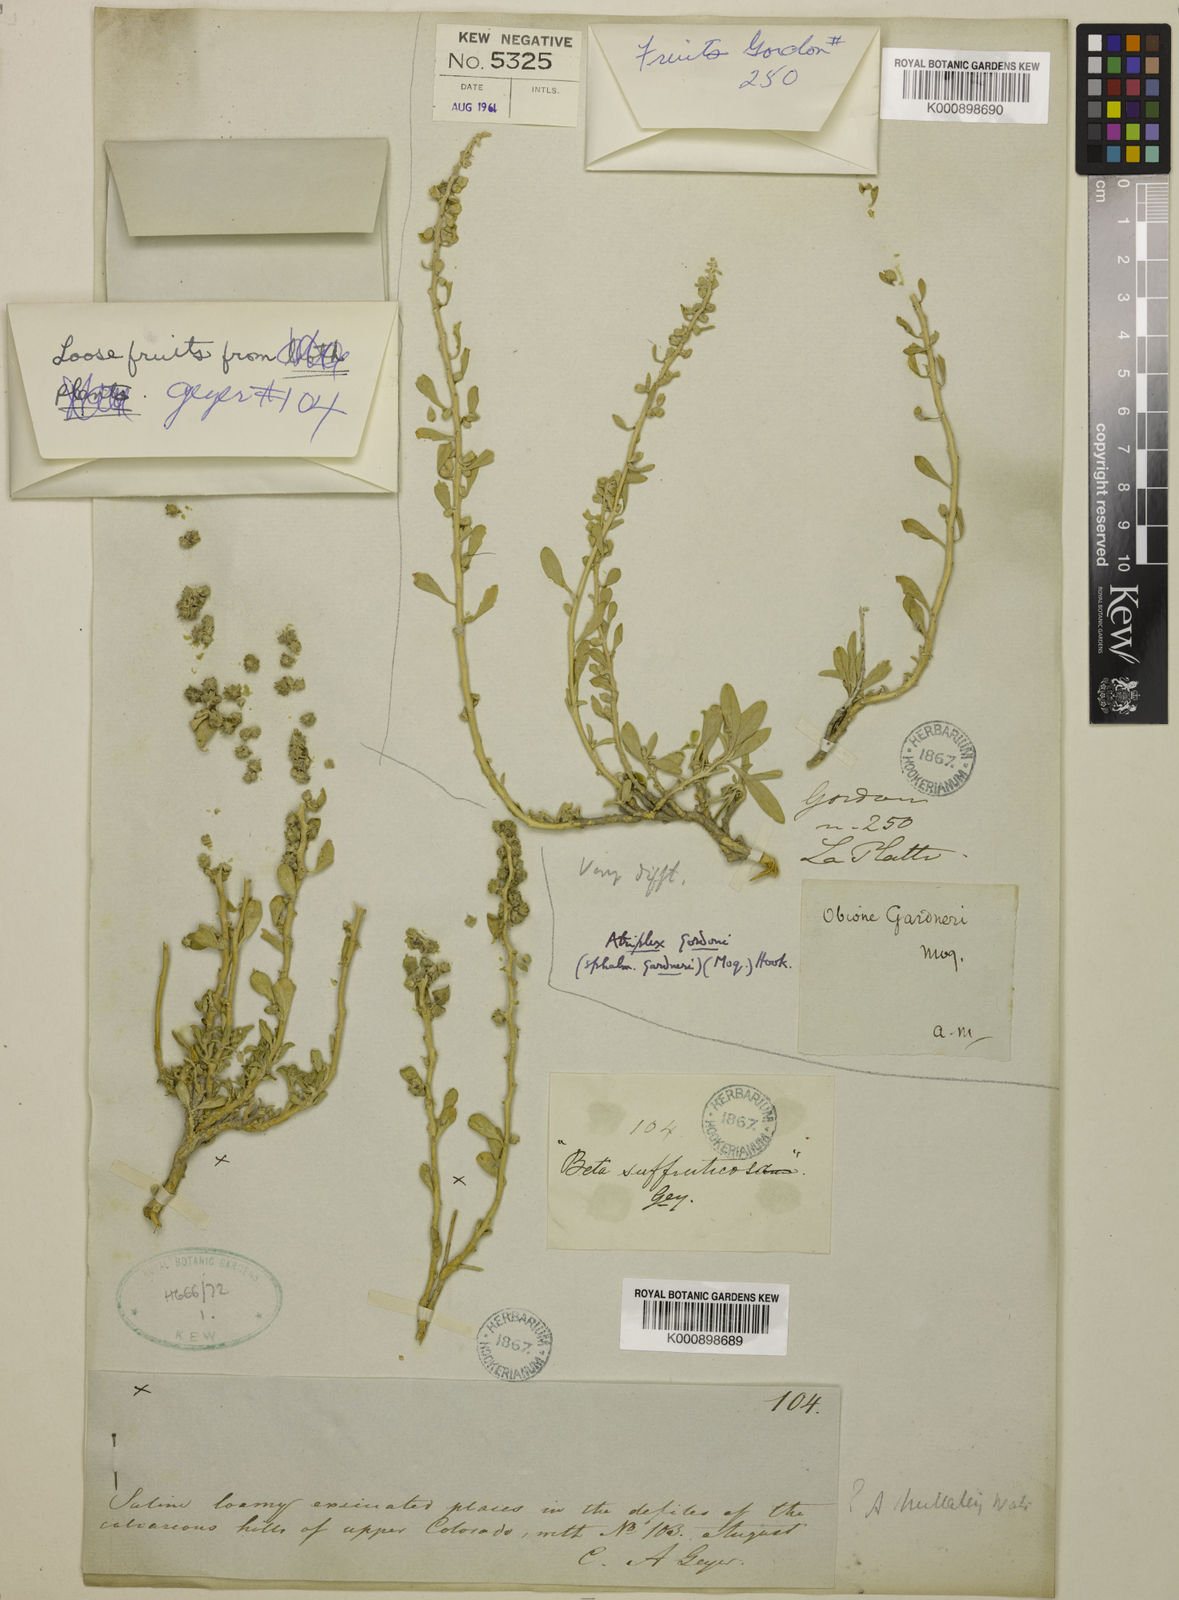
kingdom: Plantae
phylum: Tracheophyta
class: Magnoliopsida
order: Caryophyllales
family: Amaranthaceae
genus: Atriplex
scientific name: Atriplex canescens
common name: Four-wing saltbush
